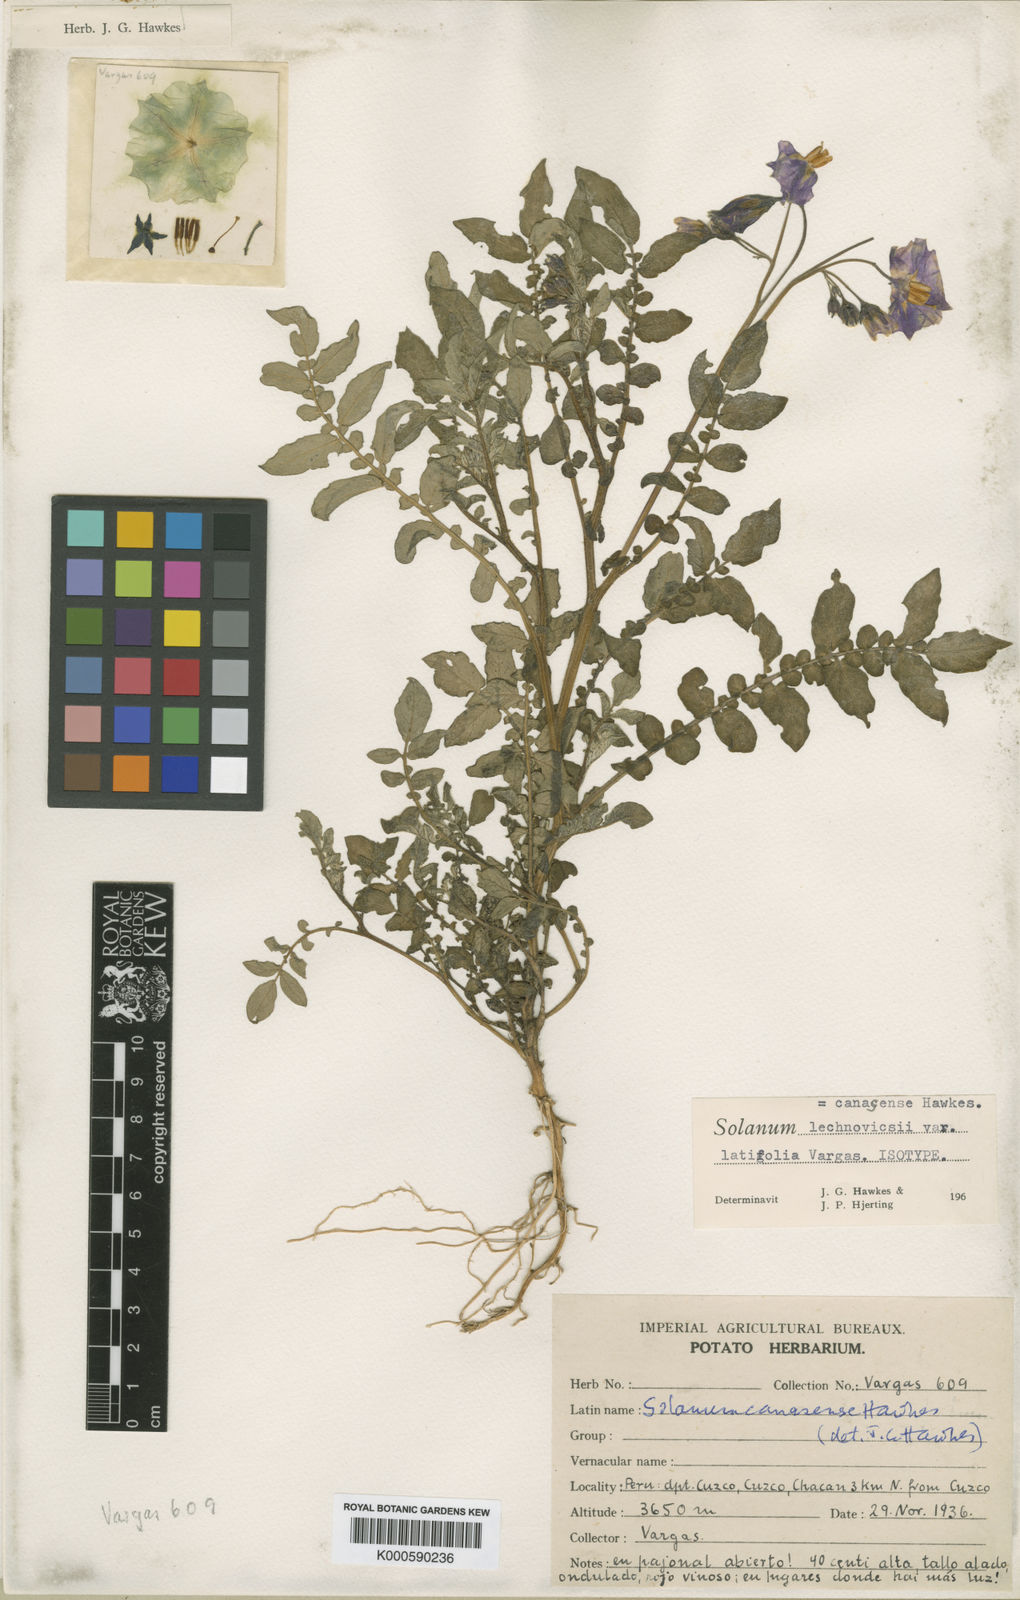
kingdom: Plantae
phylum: Tracheophyta
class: Magnoliopsida
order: Solanales
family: Solanaceae
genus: Solanum
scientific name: Solanum candolleanum
